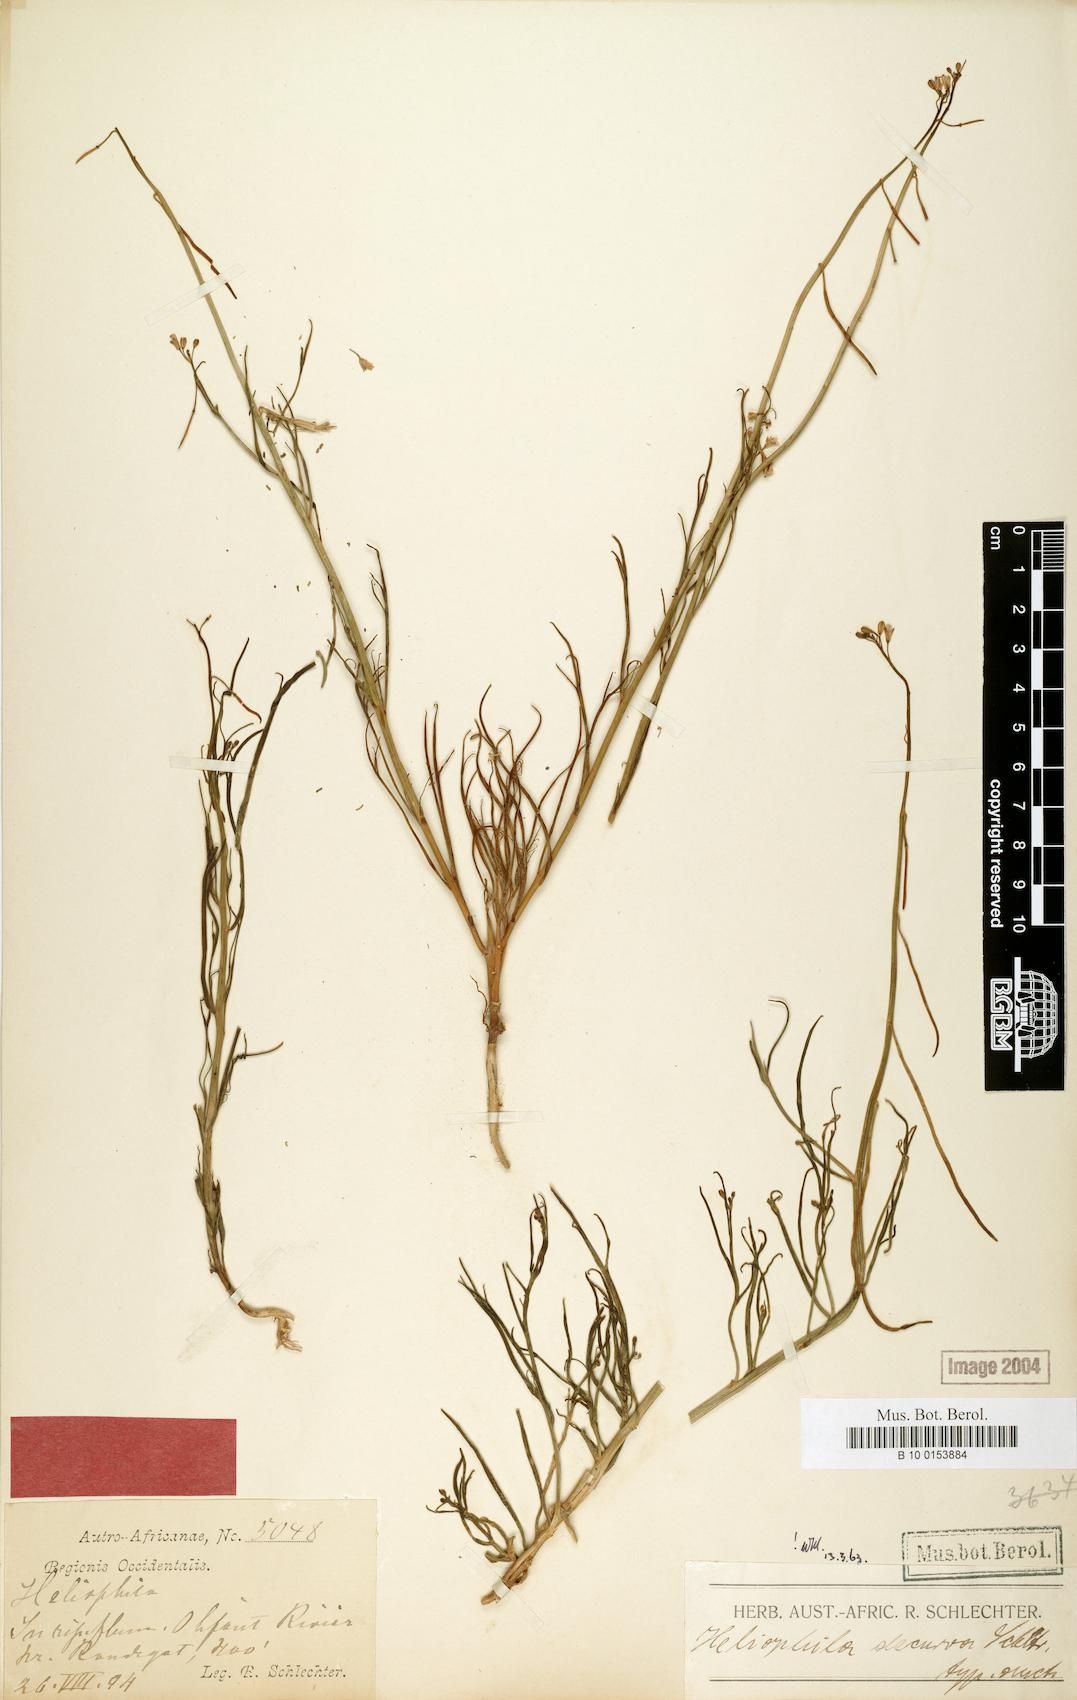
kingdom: Plantae
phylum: Tracheophyta
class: Magnoliopsida
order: Brassicales
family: Brassicaceae
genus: Heliophila
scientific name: Heliophila descurva
